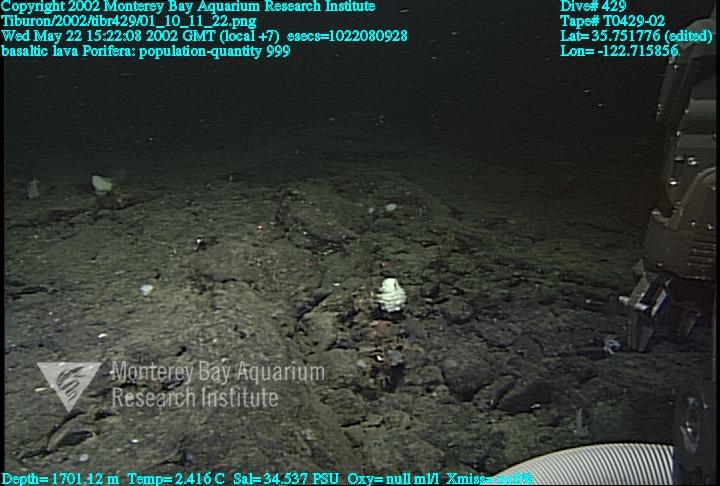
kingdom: Animalia
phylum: Porifera
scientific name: Porifera
